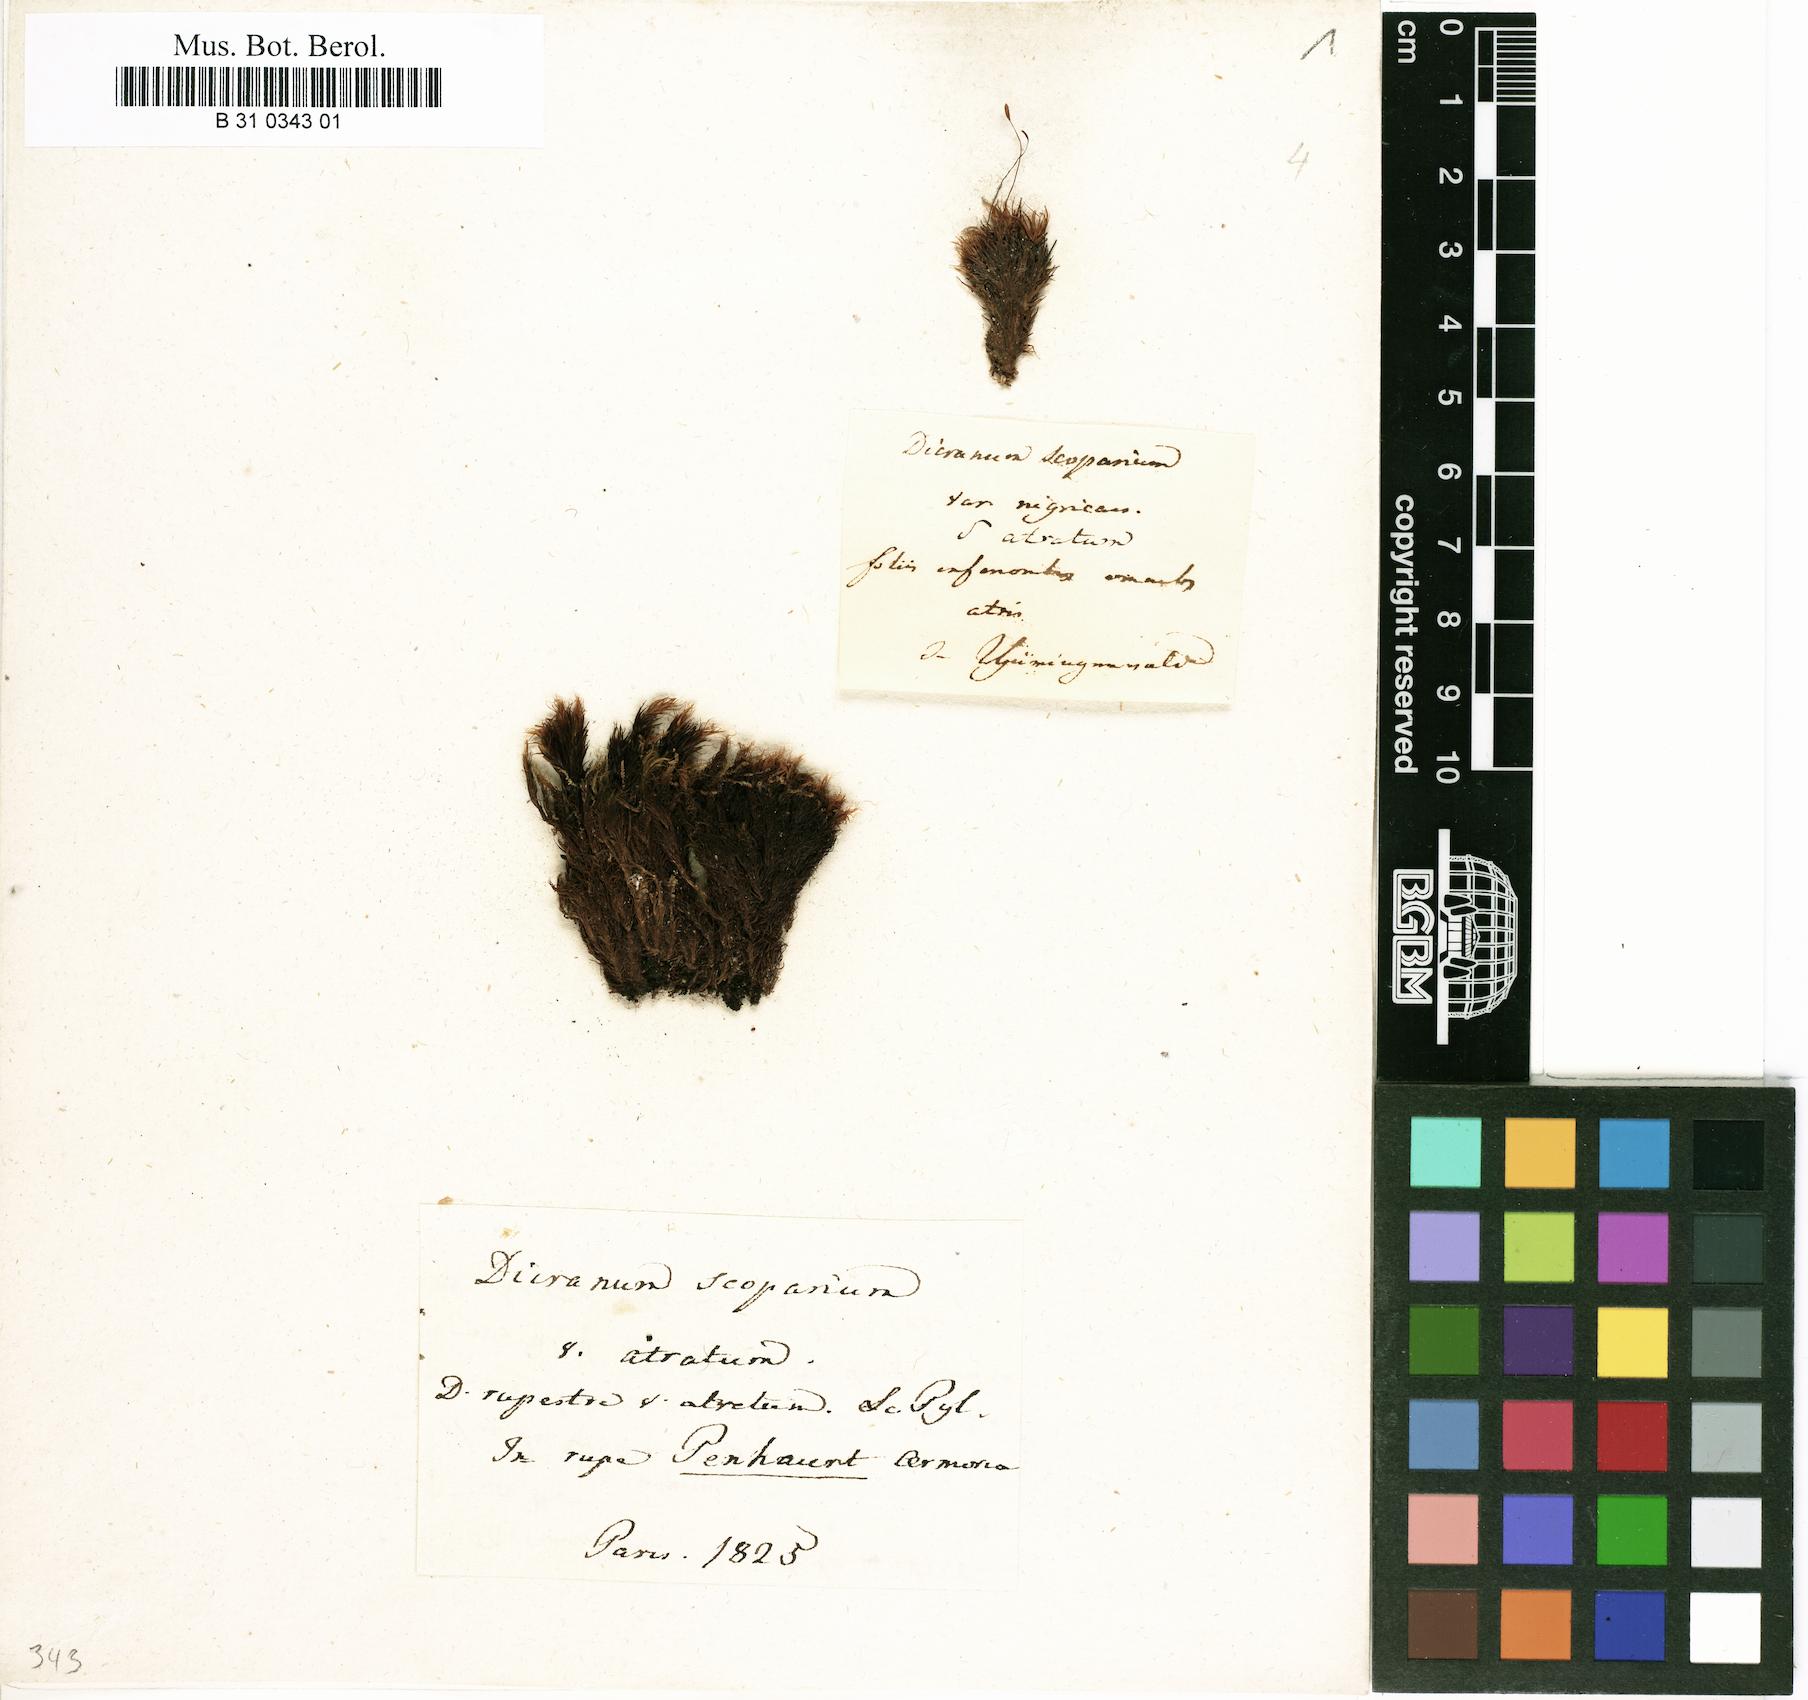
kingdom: Plantae
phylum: Bryophyta
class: Bryopsida
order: Dicranales
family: Dicranaceae
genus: Dicranum
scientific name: Dicranum scoparium
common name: Broom fork-moss
